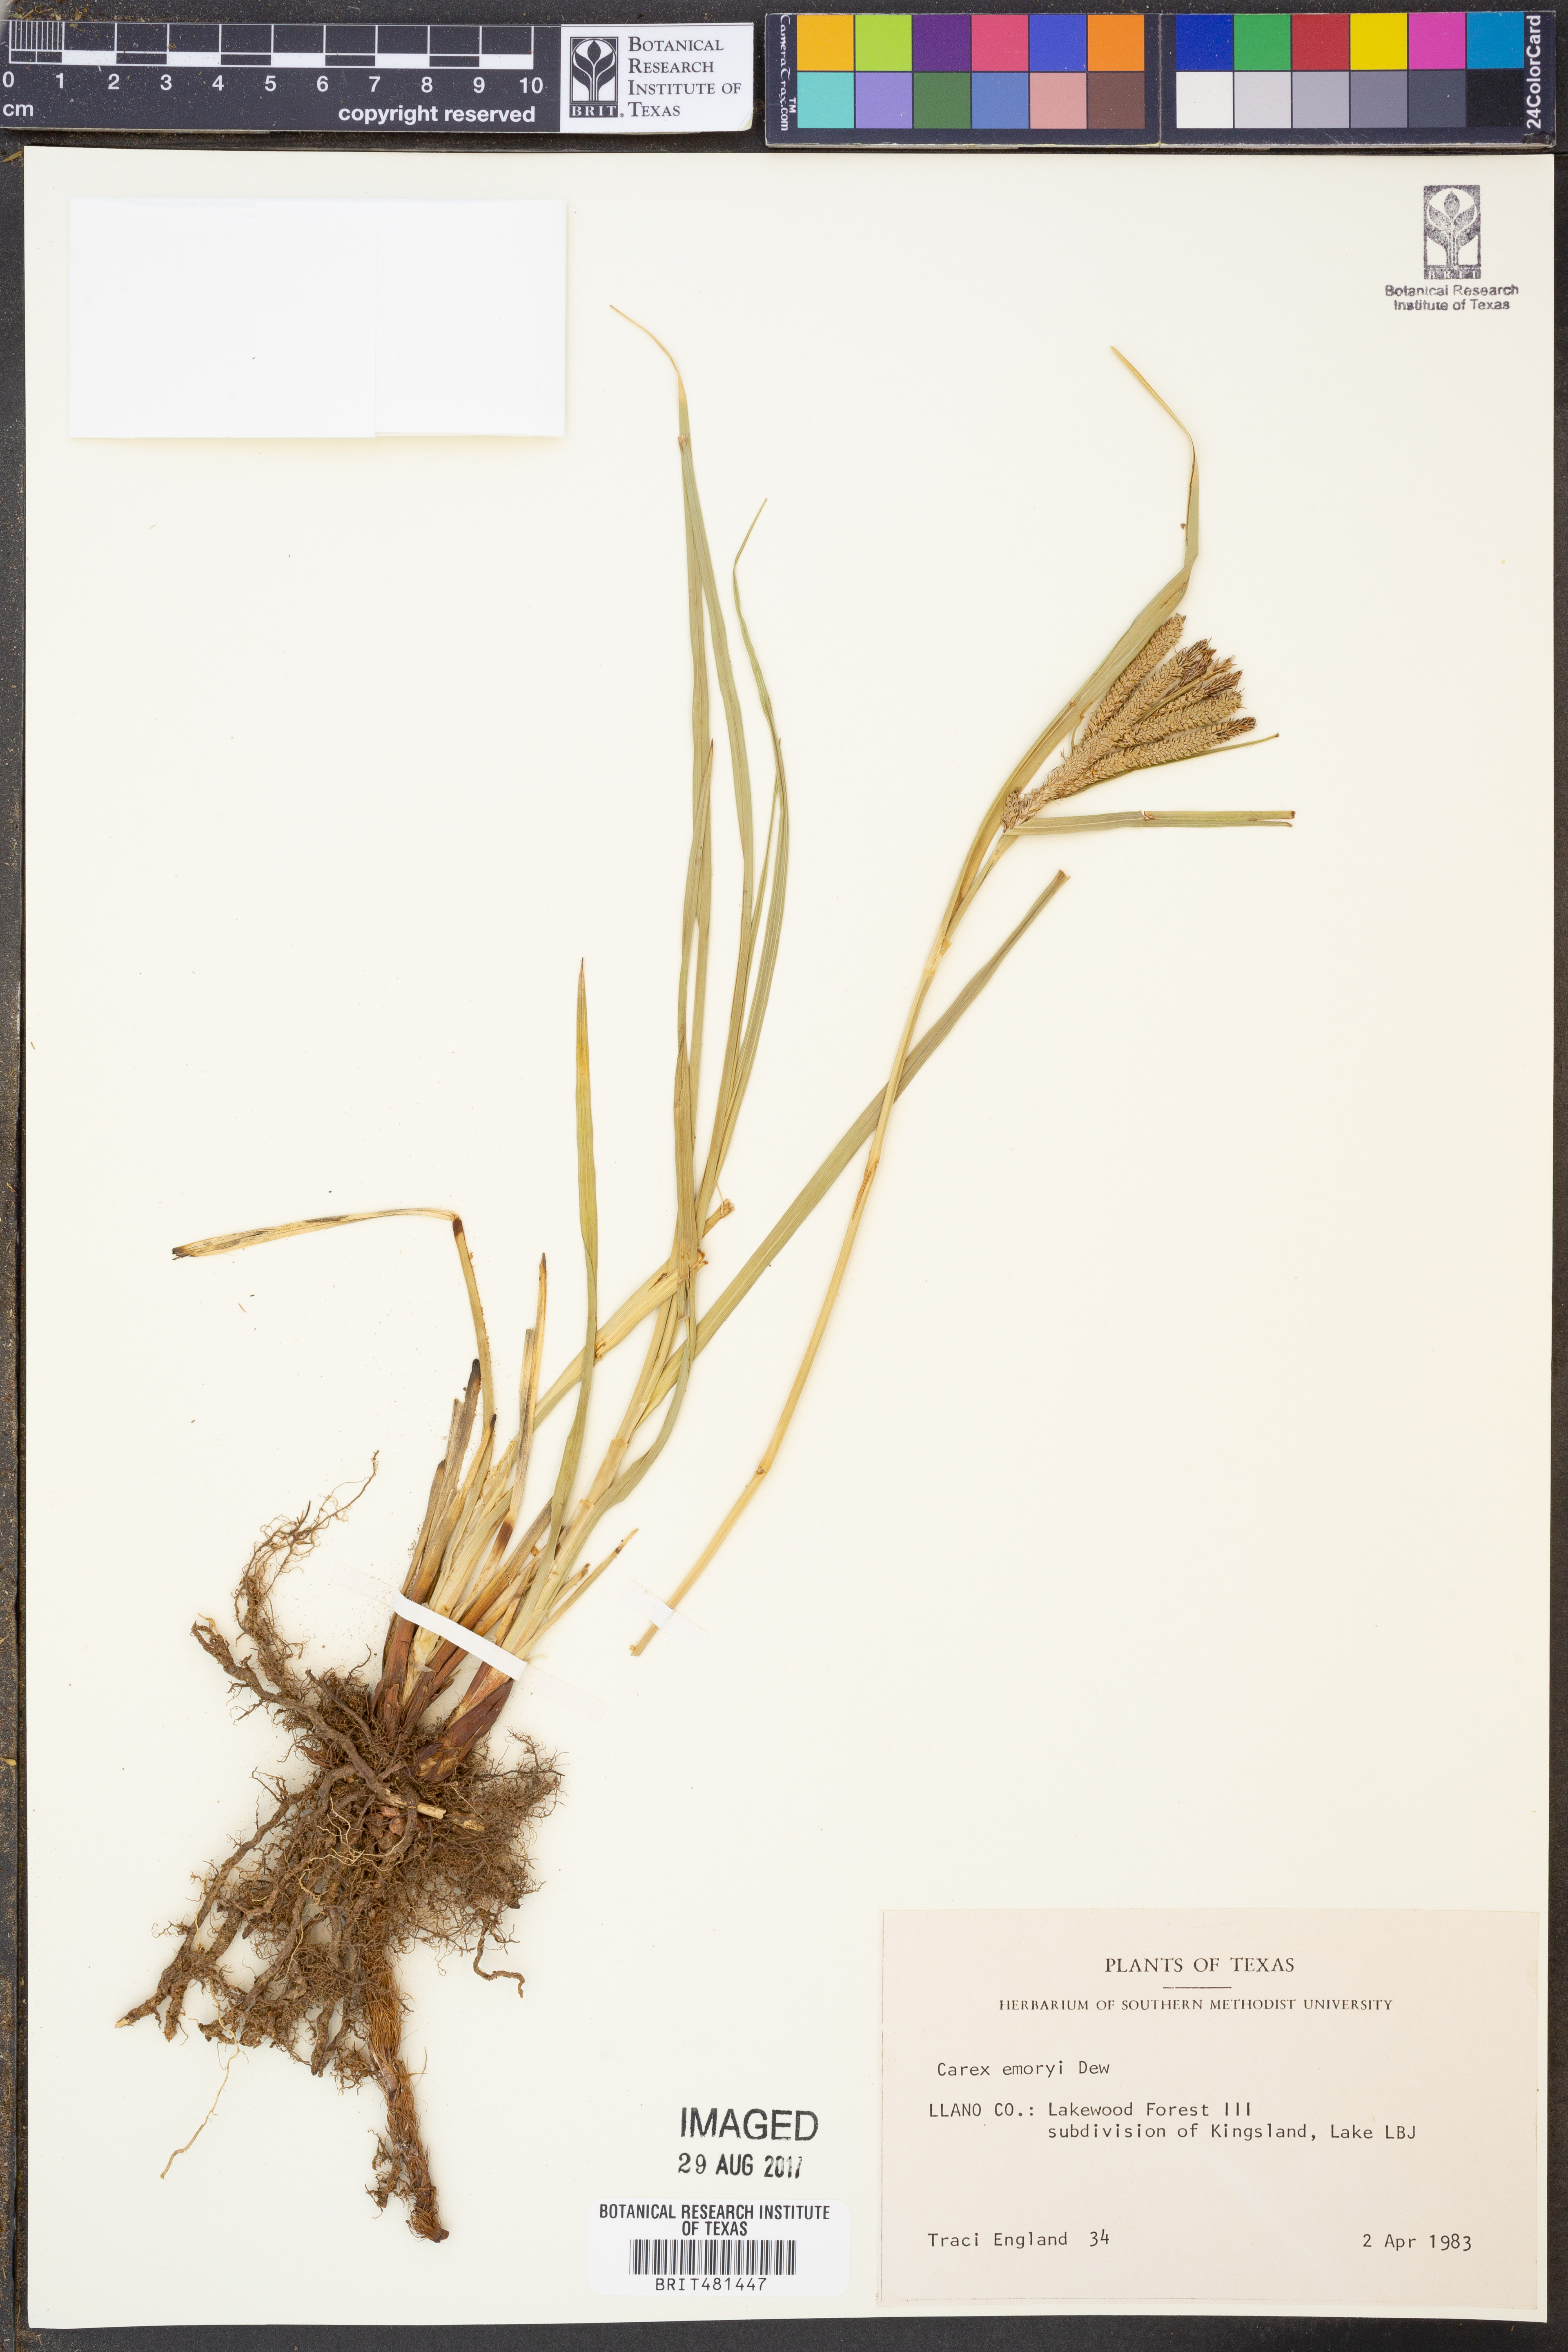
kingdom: Plantae
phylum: Tracheophyta
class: Liliopsida
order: Poales
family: Cyperaceae
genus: Carex
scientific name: Carex emoryi
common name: Emory's sedge
